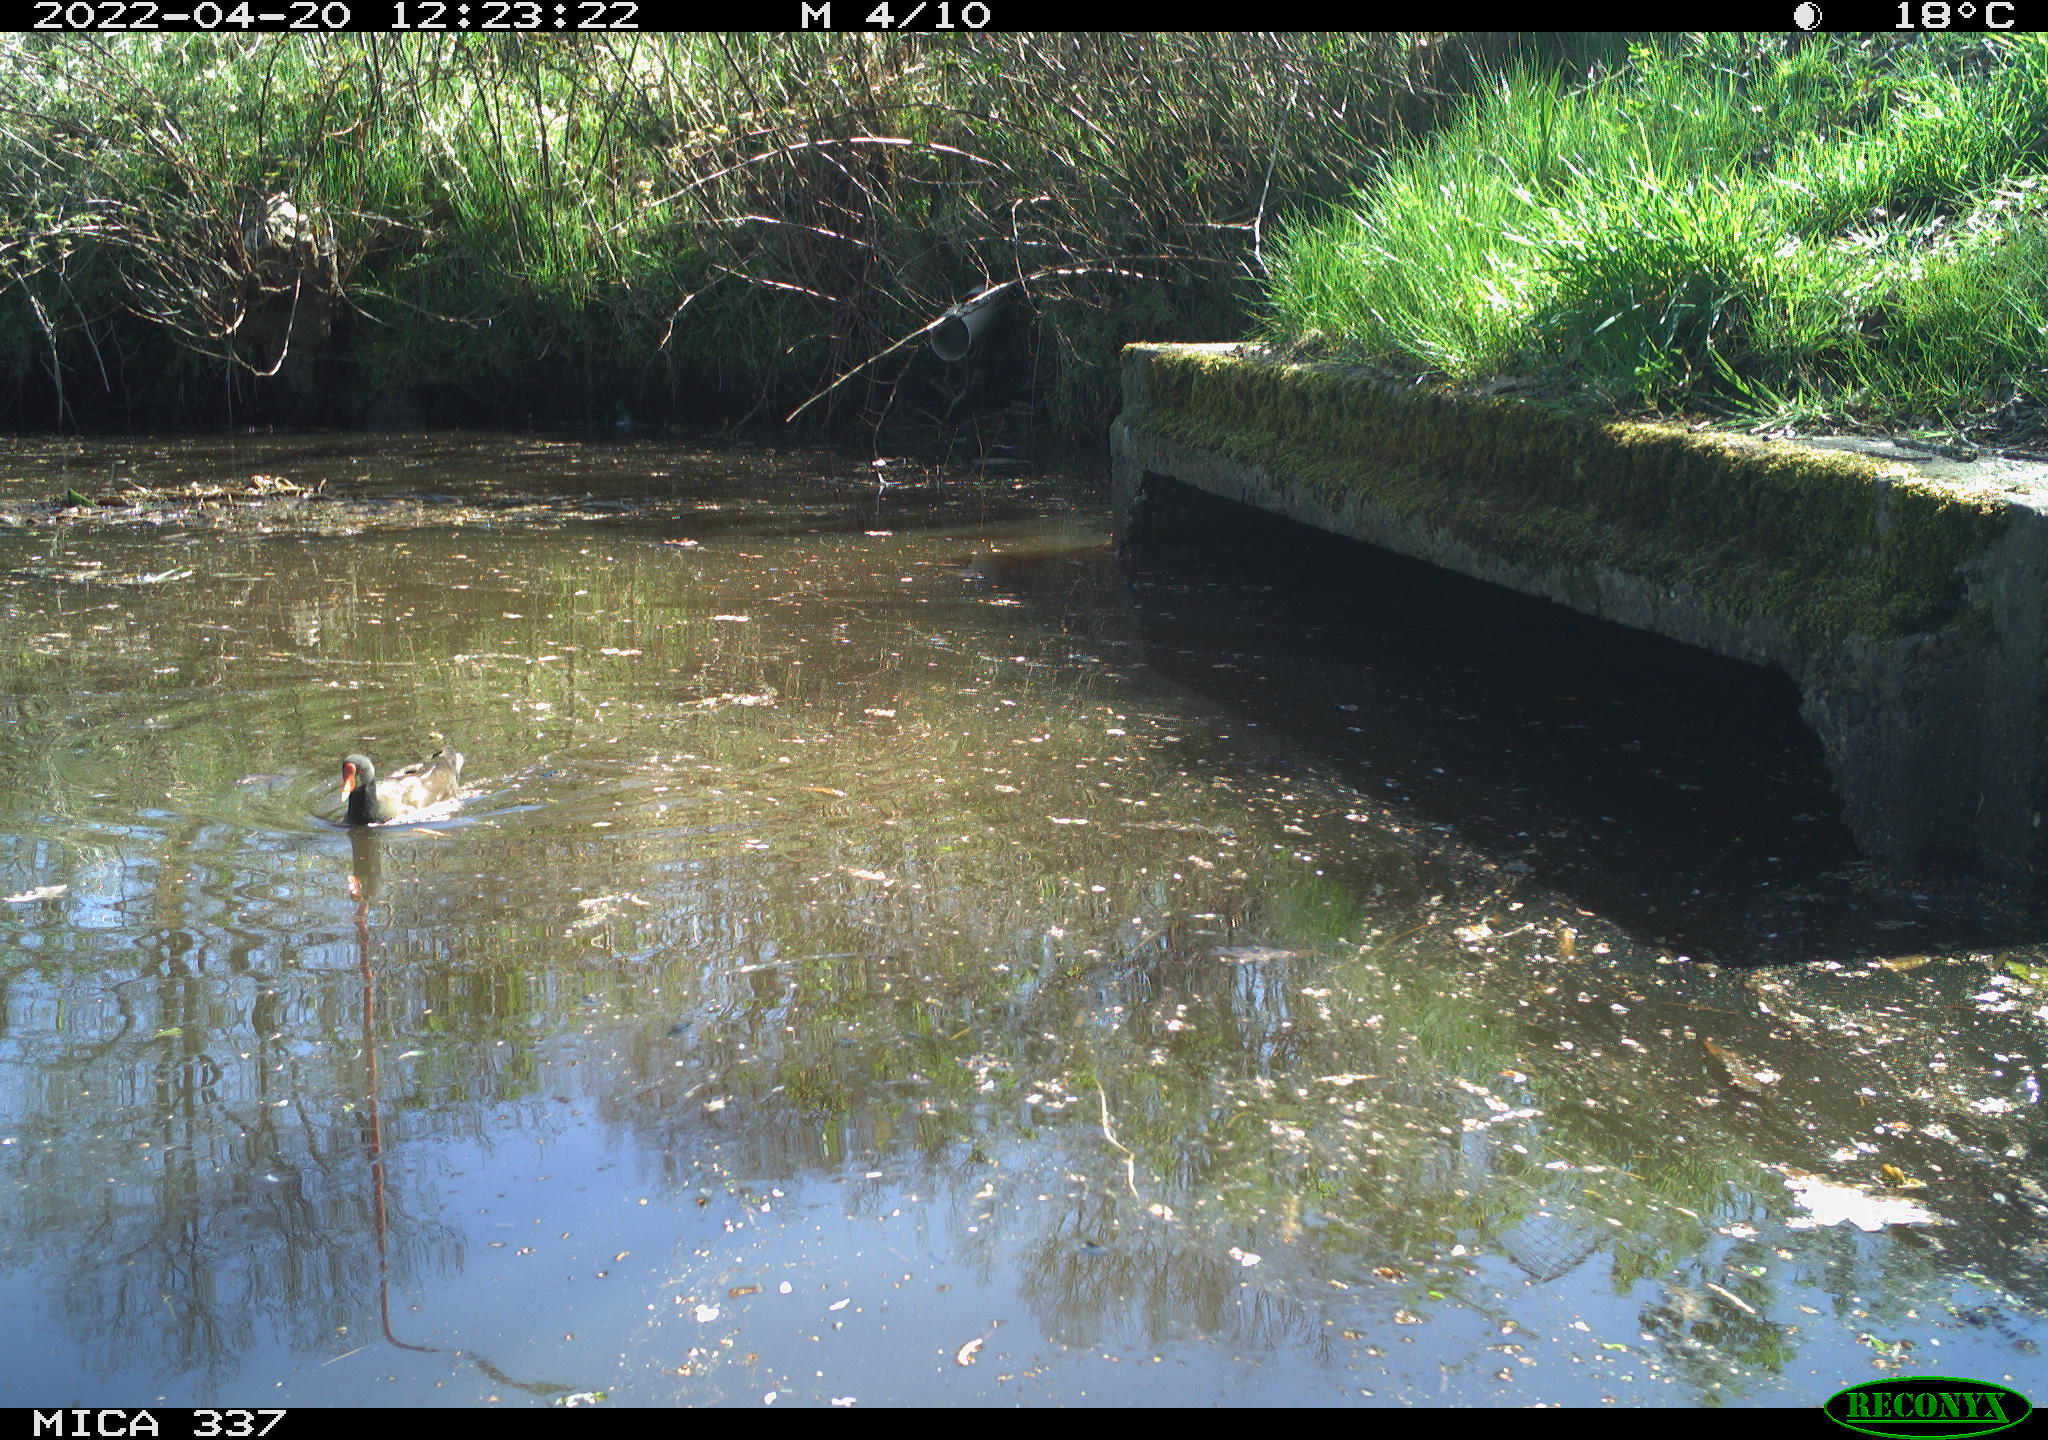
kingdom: Animalia
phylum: Chordata
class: Aves
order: Gruiformes
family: Rallidae
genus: Gallinula
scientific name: Gallinula chloropus
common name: Common moorhen
